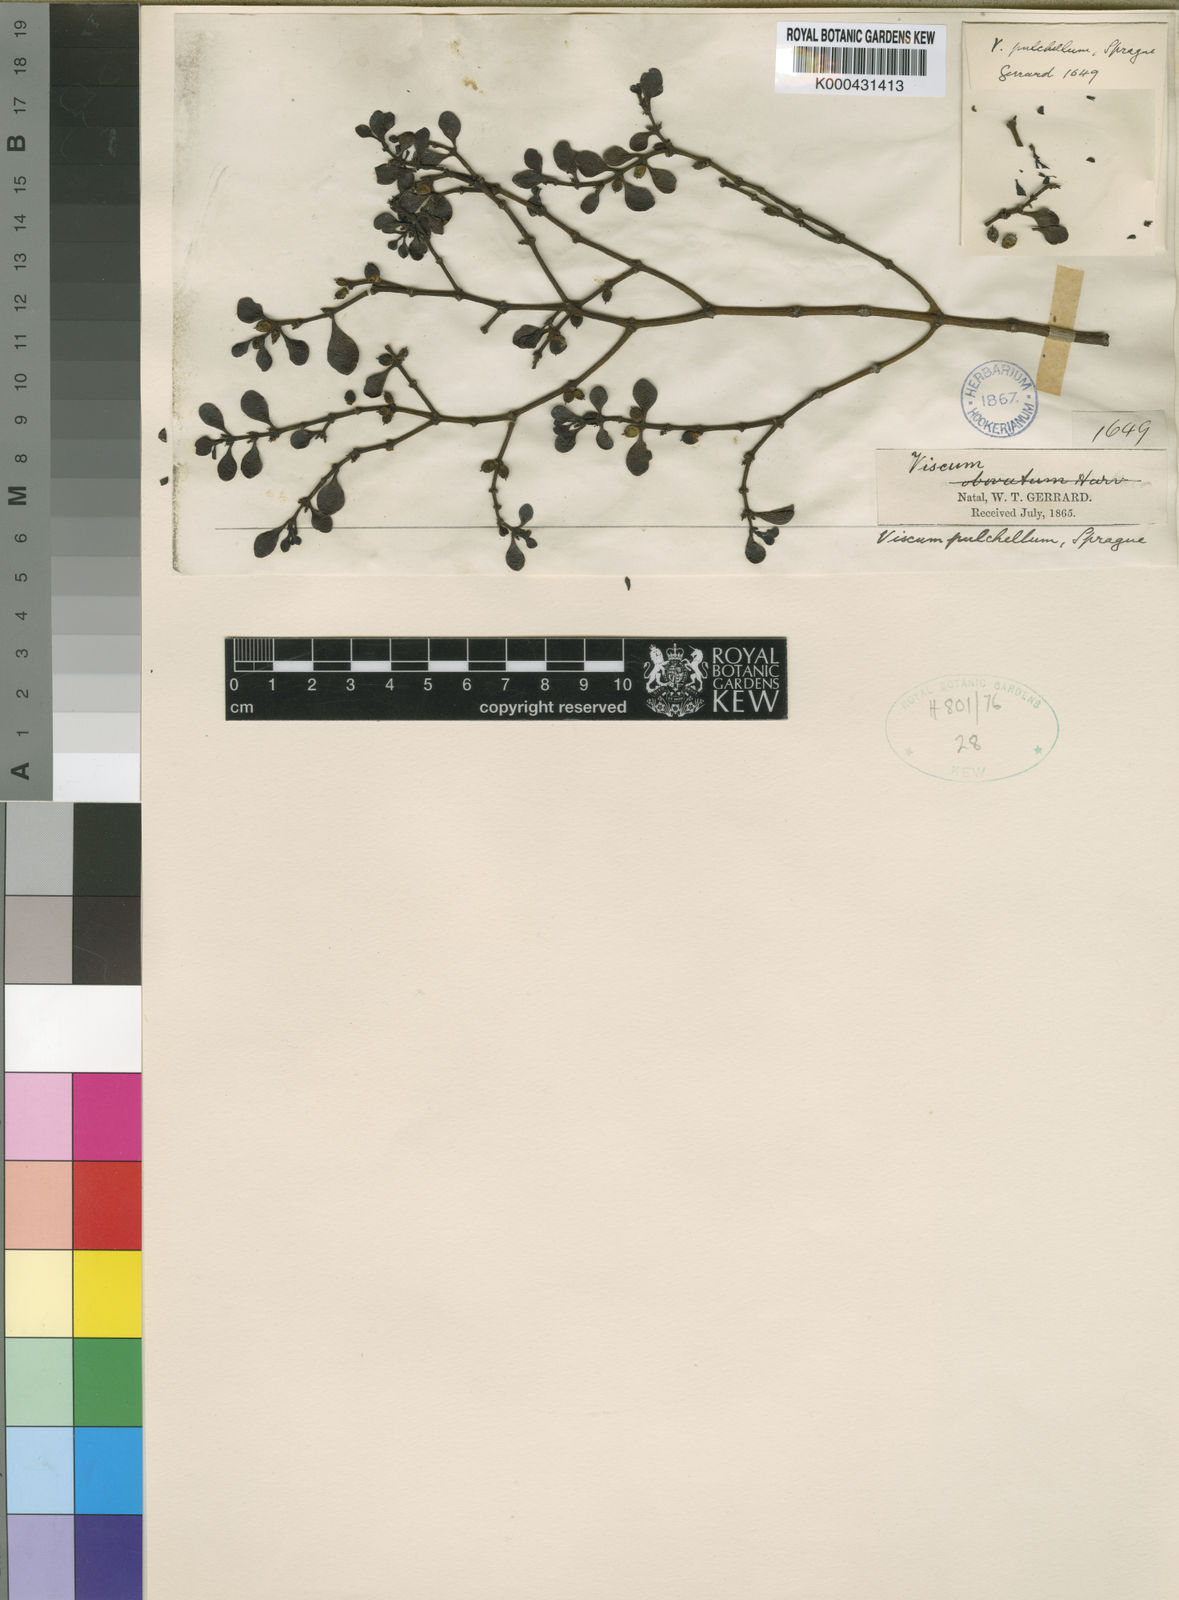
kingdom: Plantae
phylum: Tracheophyta
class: Magnoliopsida
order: Santalales
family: Viscaceae
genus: Viscum
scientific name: Viscum obovatum
